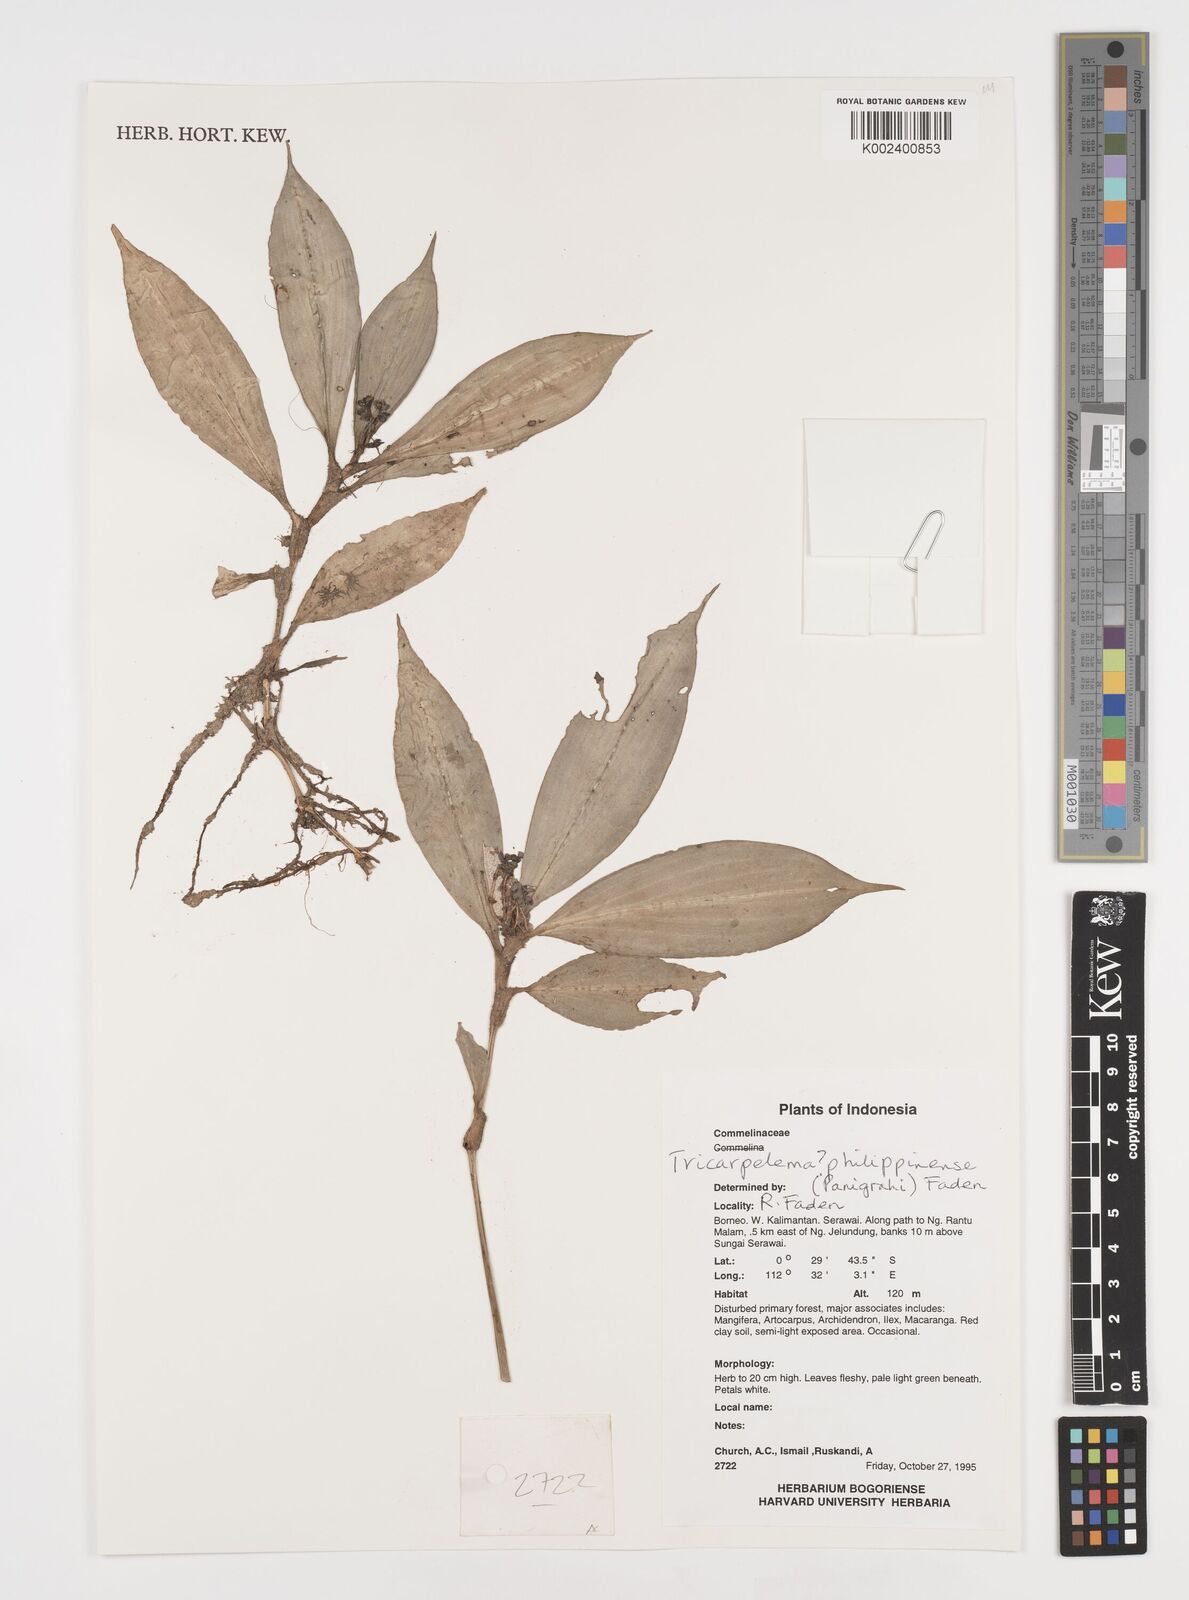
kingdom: Plantae
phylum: Tracheophyta
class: Liliopsida
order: Commelinales
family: Commelinaceae
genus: Tricarpelema
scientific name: Tricarpelema philippense
